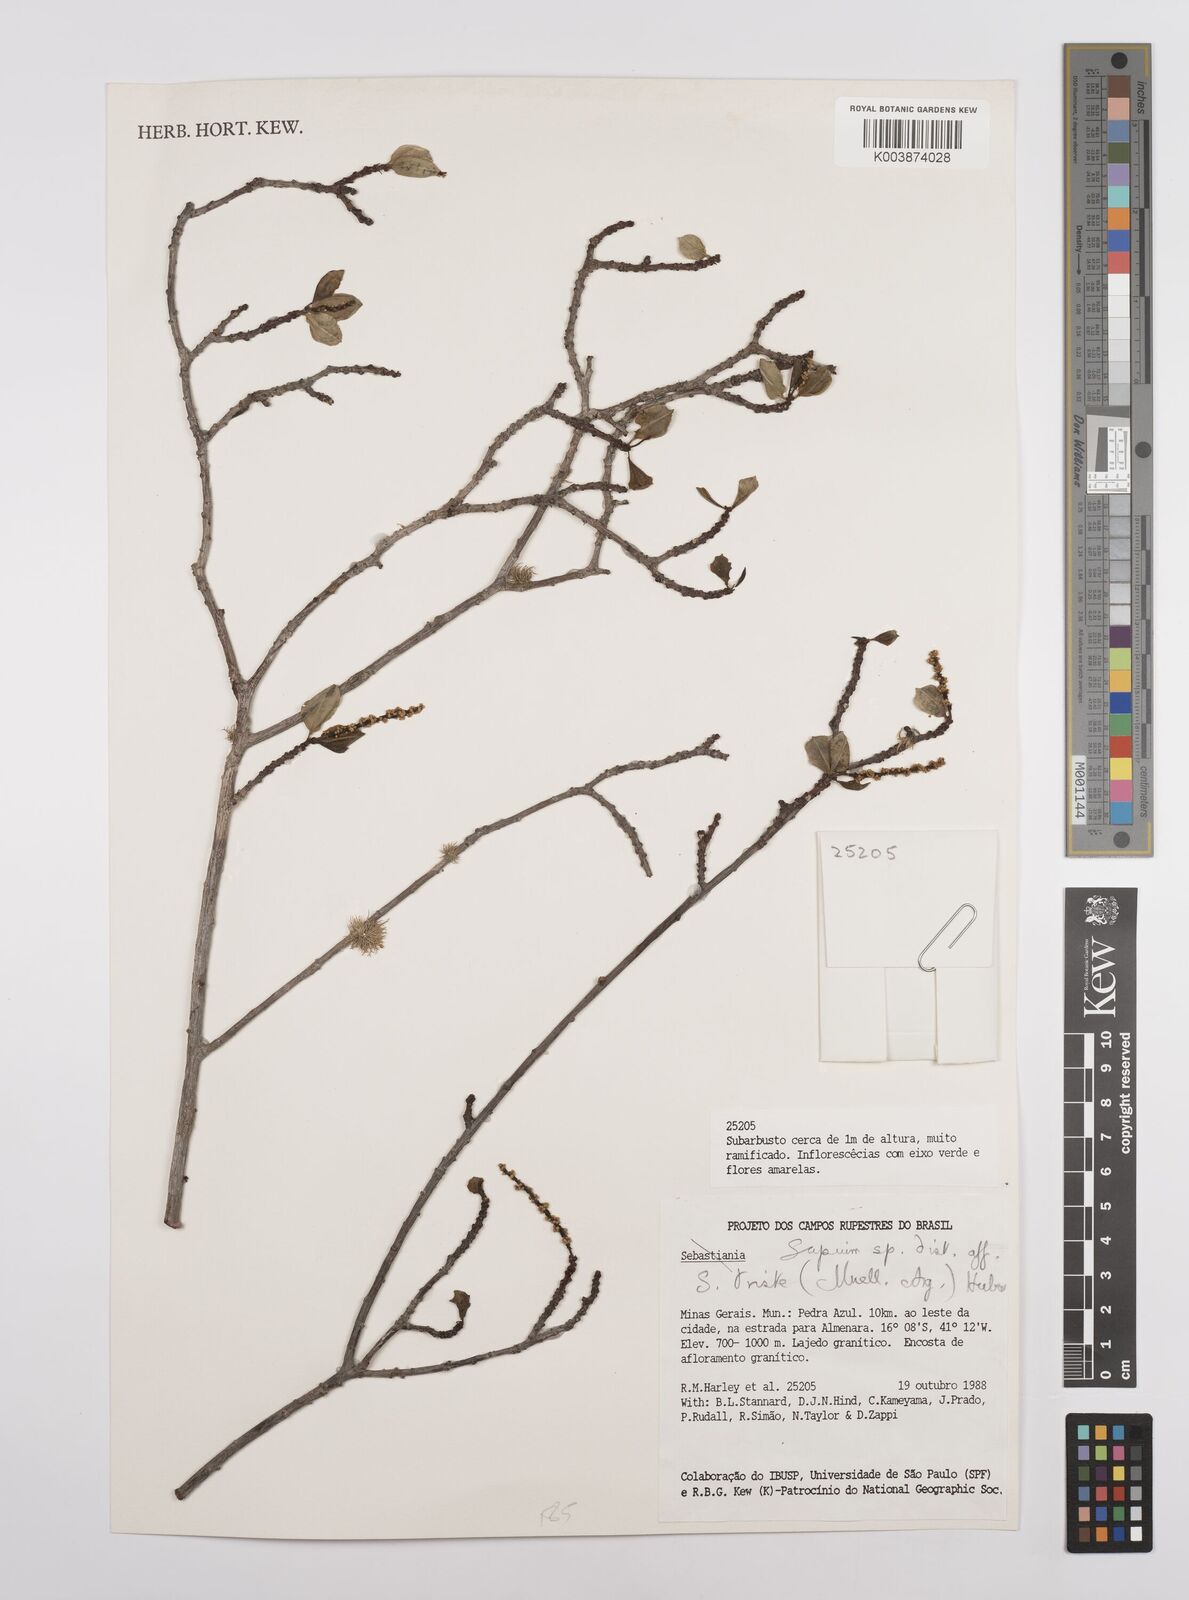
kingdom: Plantae
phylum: Tracheophyta
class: Magnoliopsida
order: Malpighiales
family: Euphorbiaceae
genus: Sapium
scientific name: Sapium argutum
